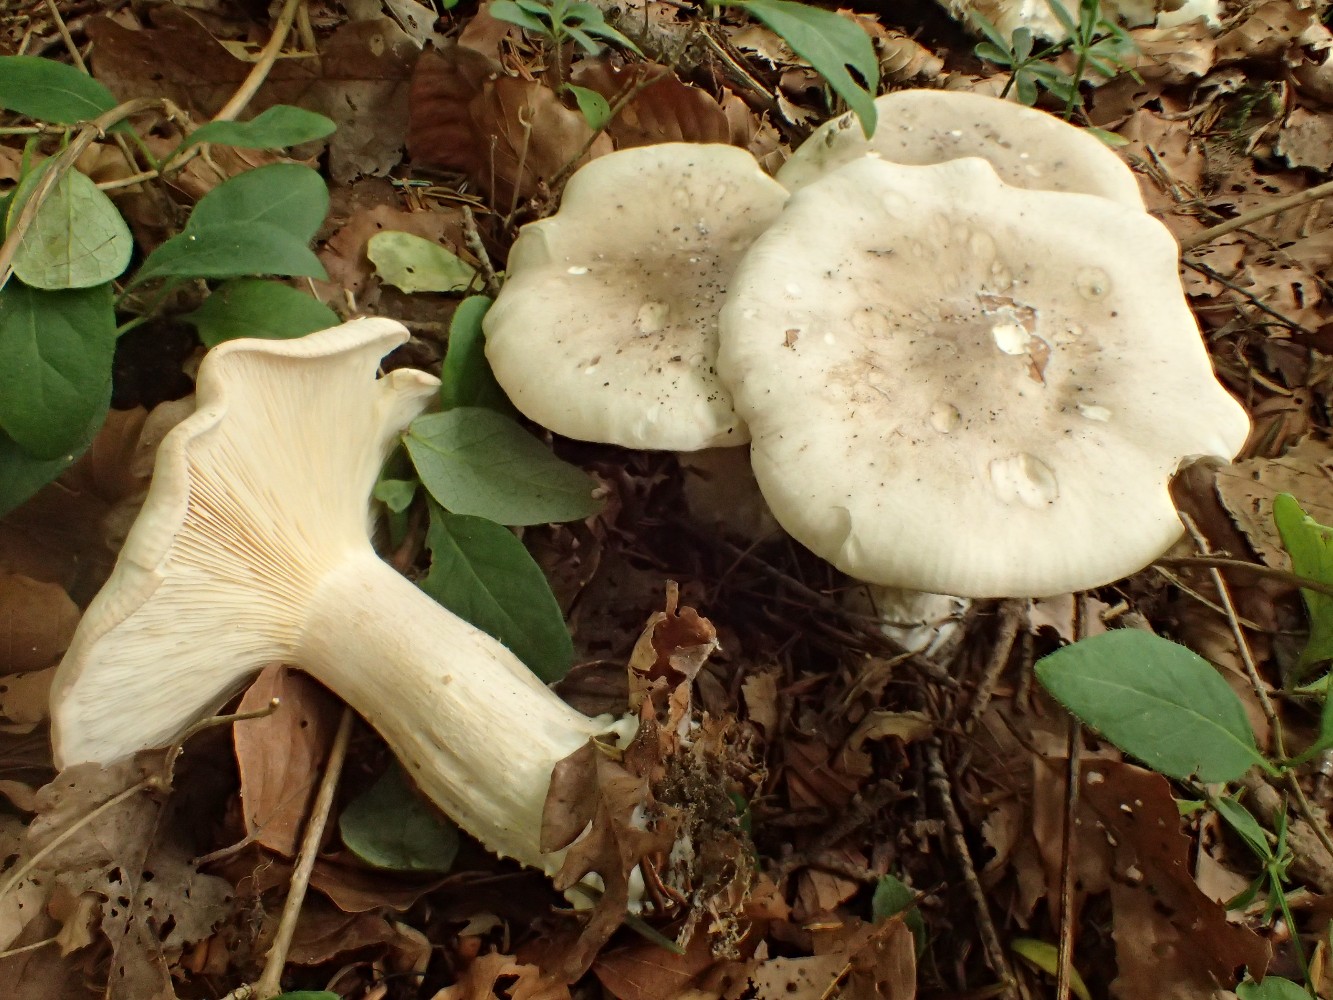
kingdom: Fungi
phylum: Basidiomycota
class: Agaricomycetes
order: Agaricales
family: Tricholomataceae
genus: Clitocybe
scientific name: Clitocybe nebularis
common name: tåge-tragthat
